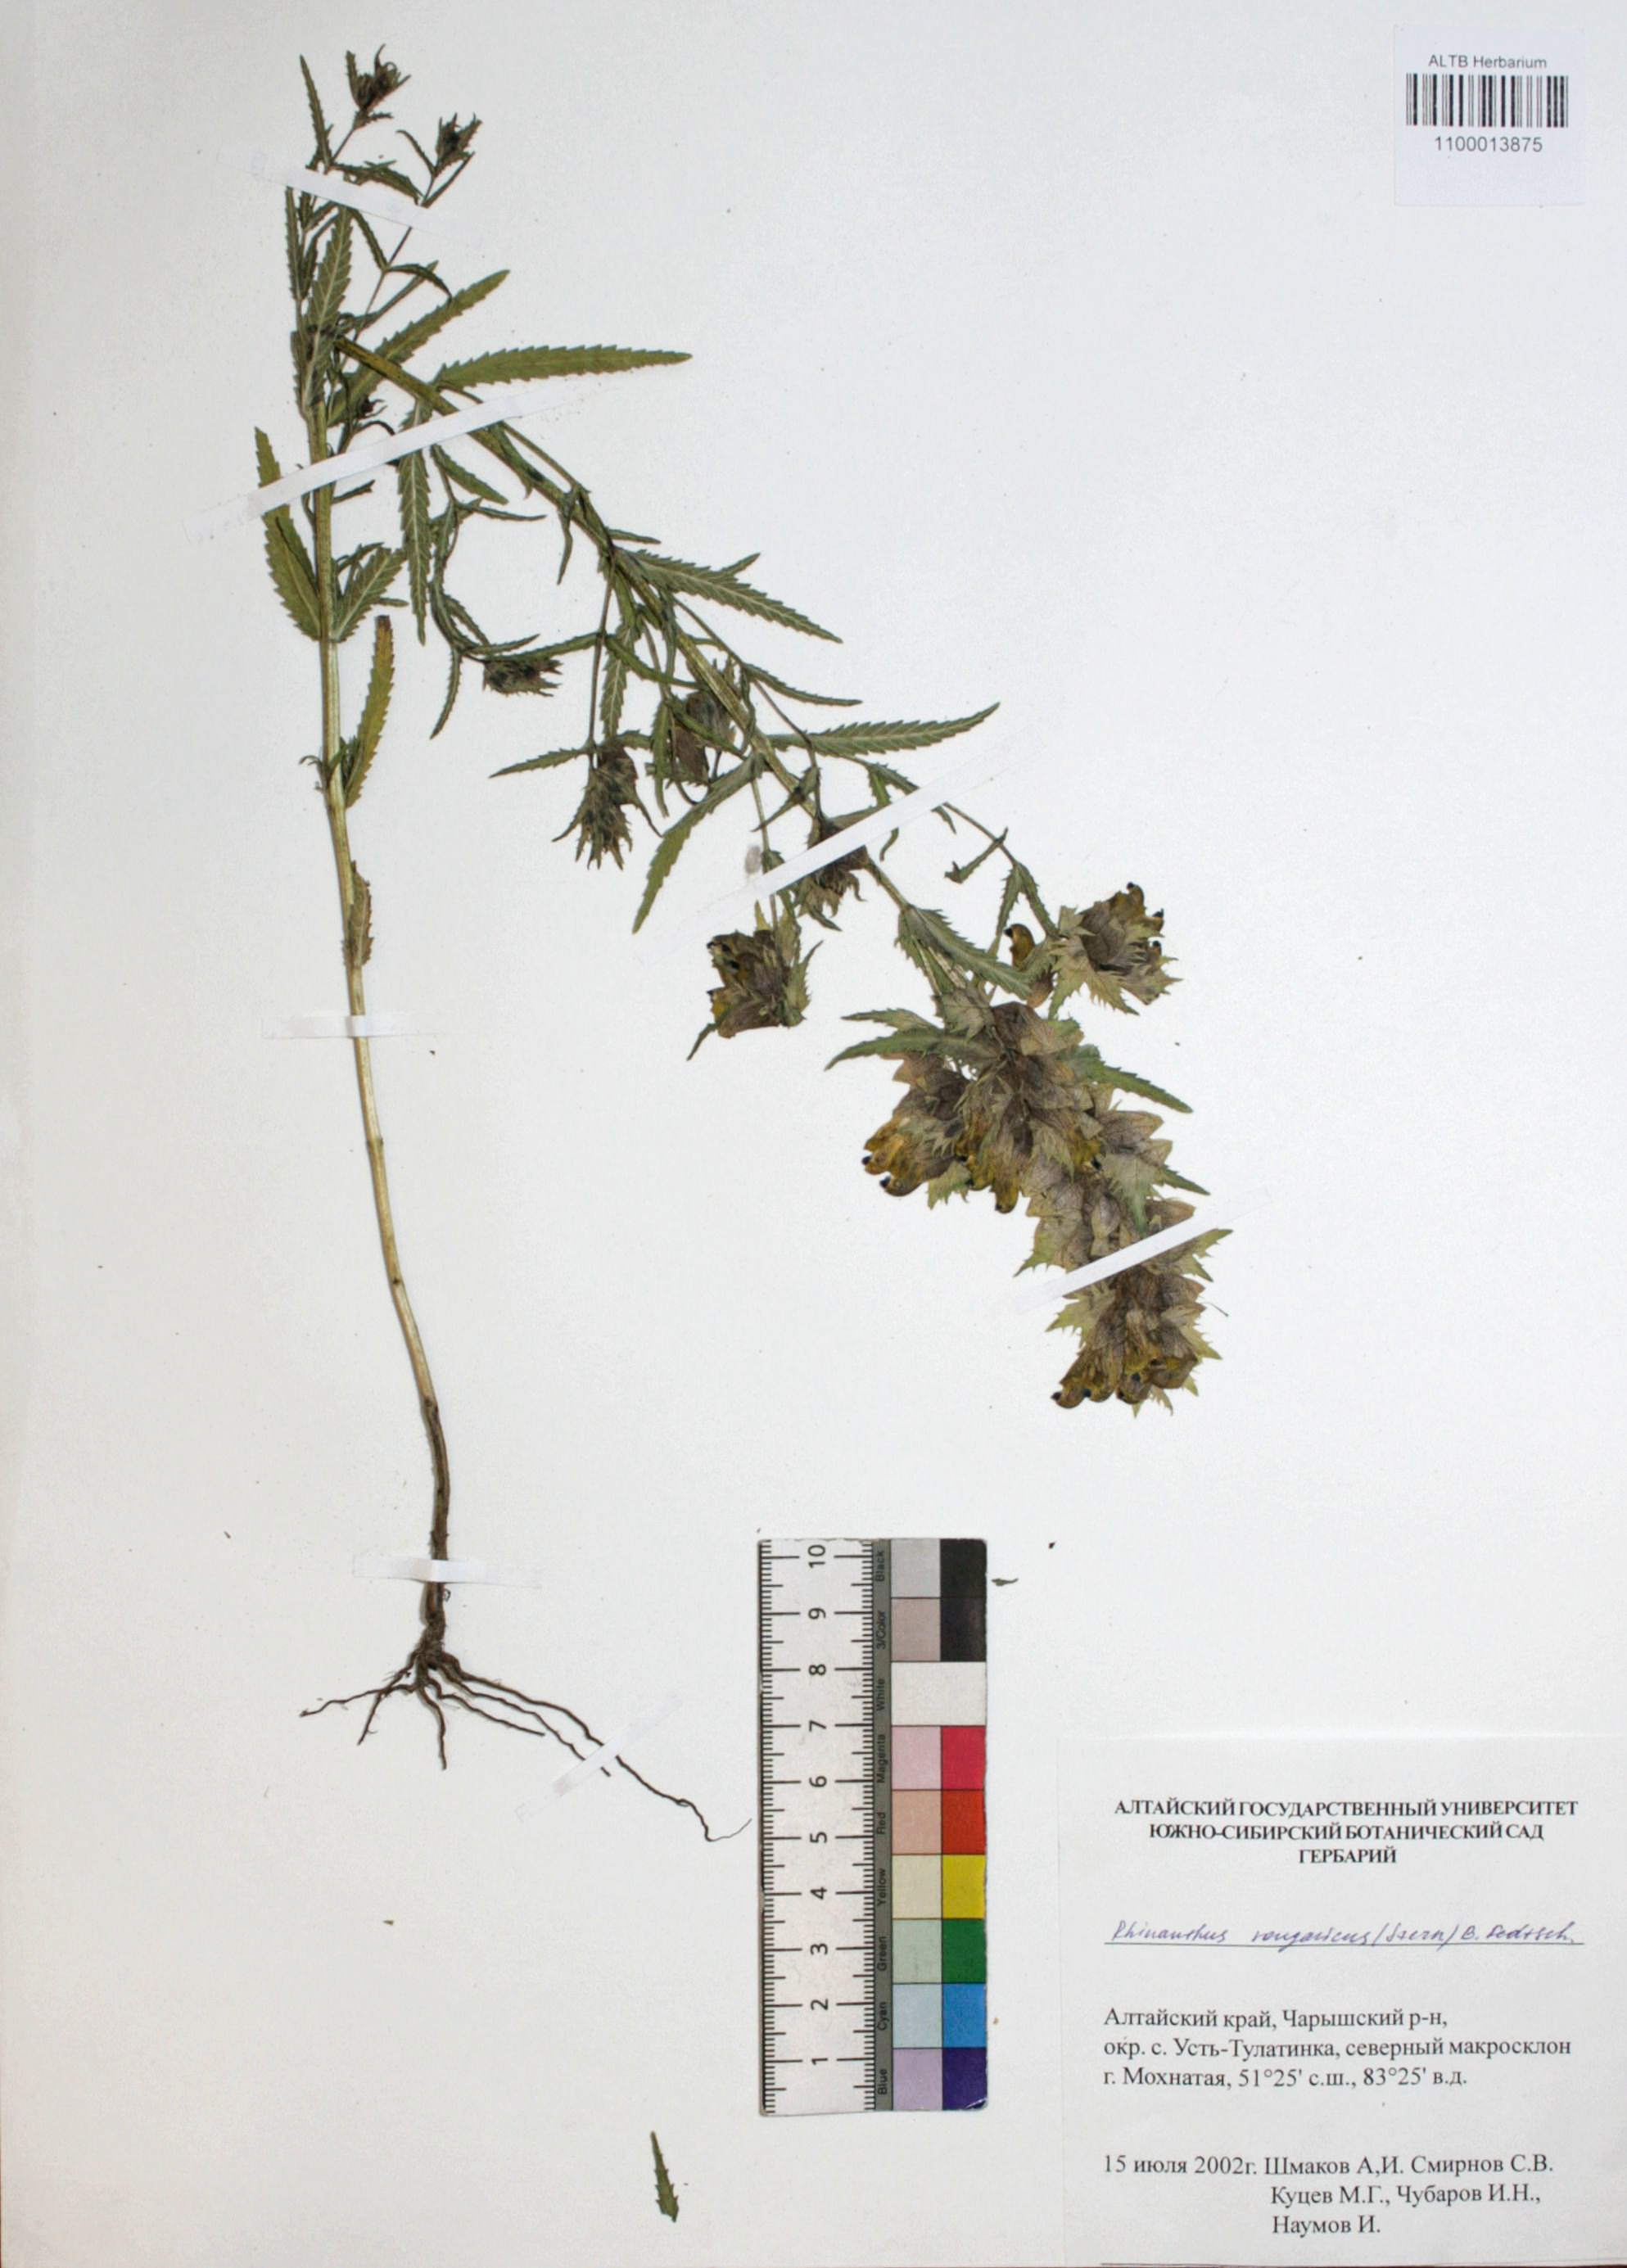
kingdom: Plantae
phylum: Tracheophyta
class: Magnoliopsida
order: Lamiales
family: Orobanchaceae
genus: Rhinanthus
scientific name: Rhinanthus songaricus
